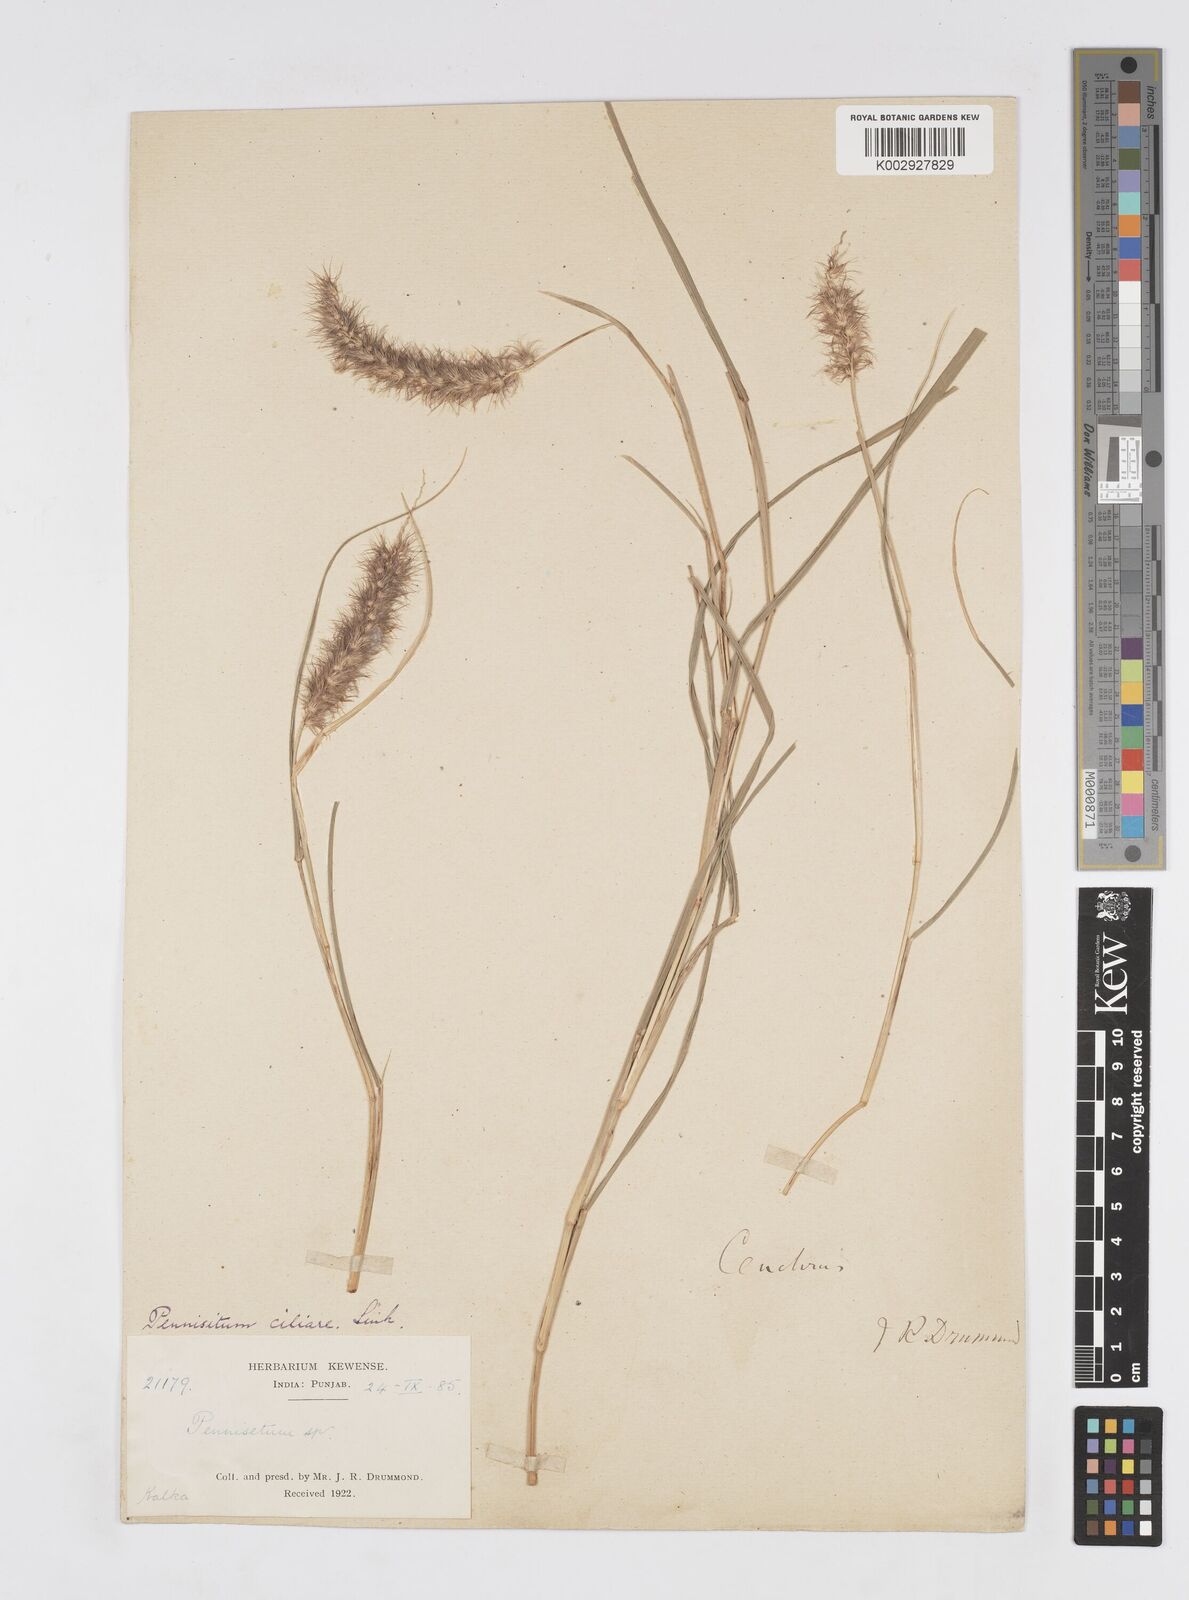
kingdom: Plantae
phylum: Tracheophyta
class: Liliopsida
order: Poales
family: Poaceae
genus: Cenchrus
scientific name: Cenchrus ciliaris
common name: Buffelgrass
